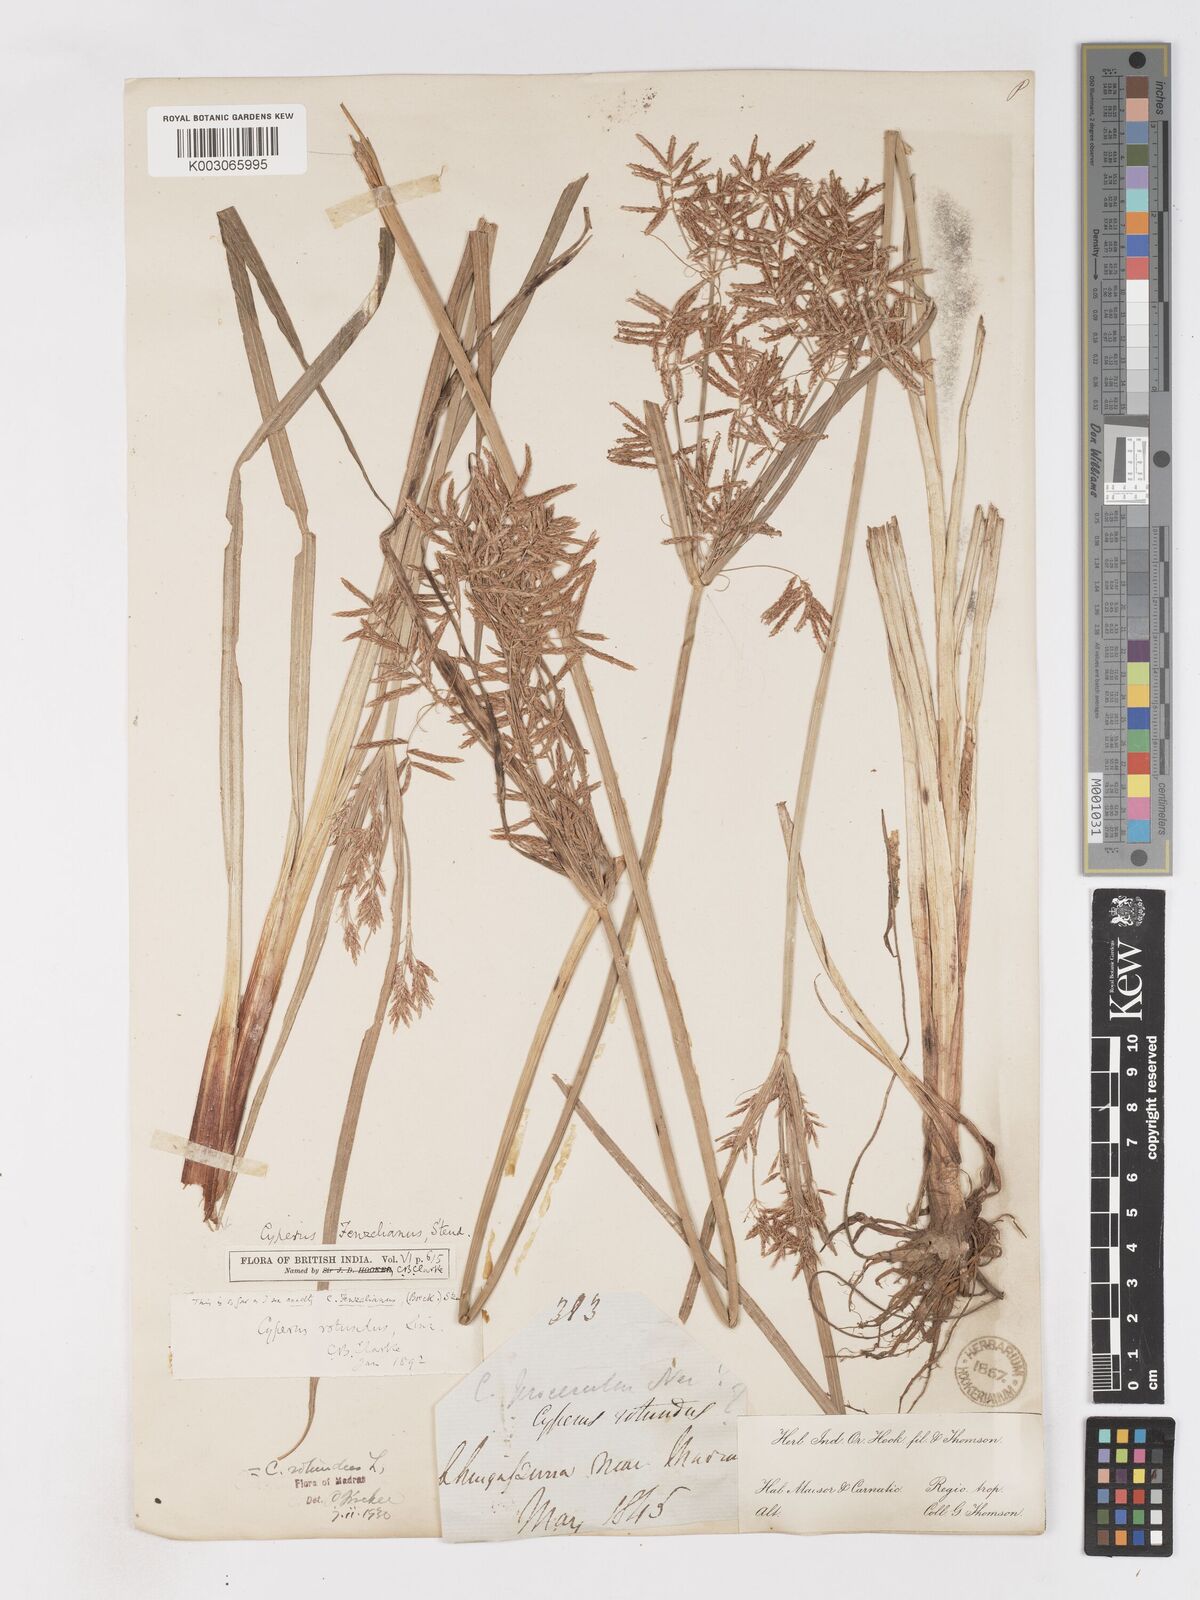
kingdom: Plantae
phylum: Tracheophyta
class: Liliopsida
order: Poales
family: Cyperaceae
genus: Cyperus
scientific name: Cyperus longus
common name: Galingale
